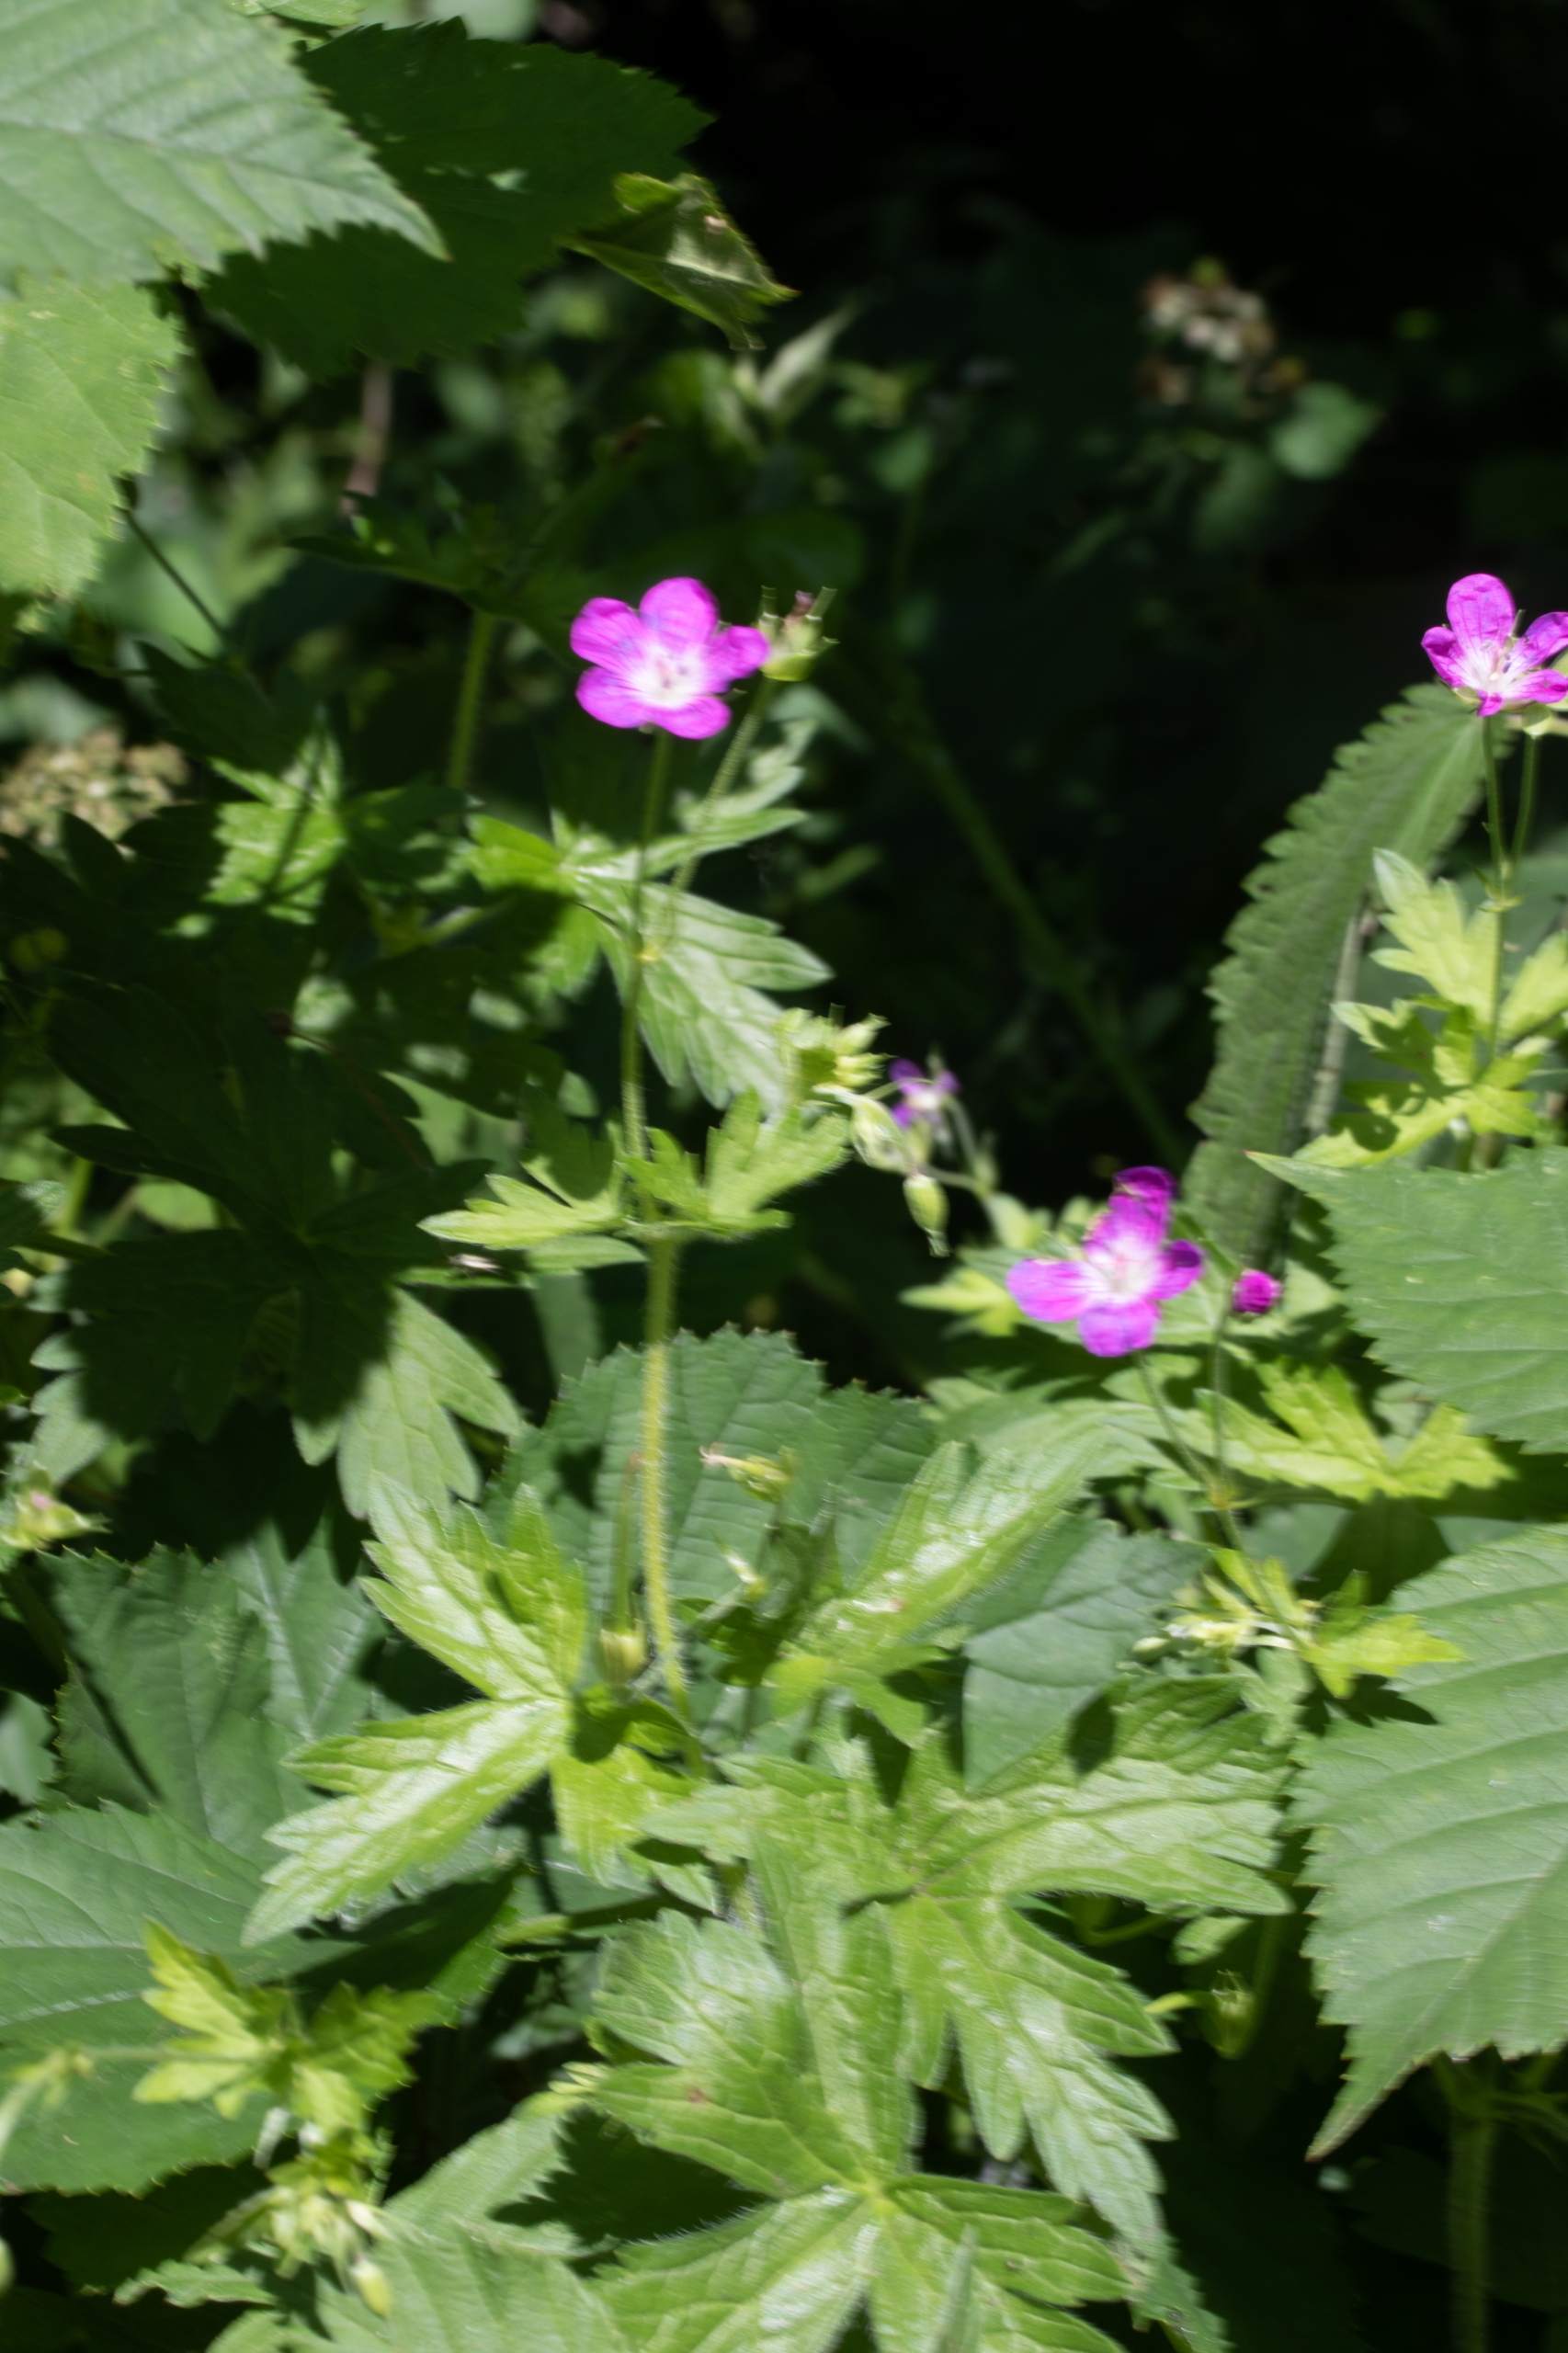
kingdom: Plantae
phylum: Tracheophyta
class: Magnoliopsida
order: Geraniales
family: Geraniaceae
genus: Geranium
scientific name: Geranium palustre
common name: Kær-storkenæb
